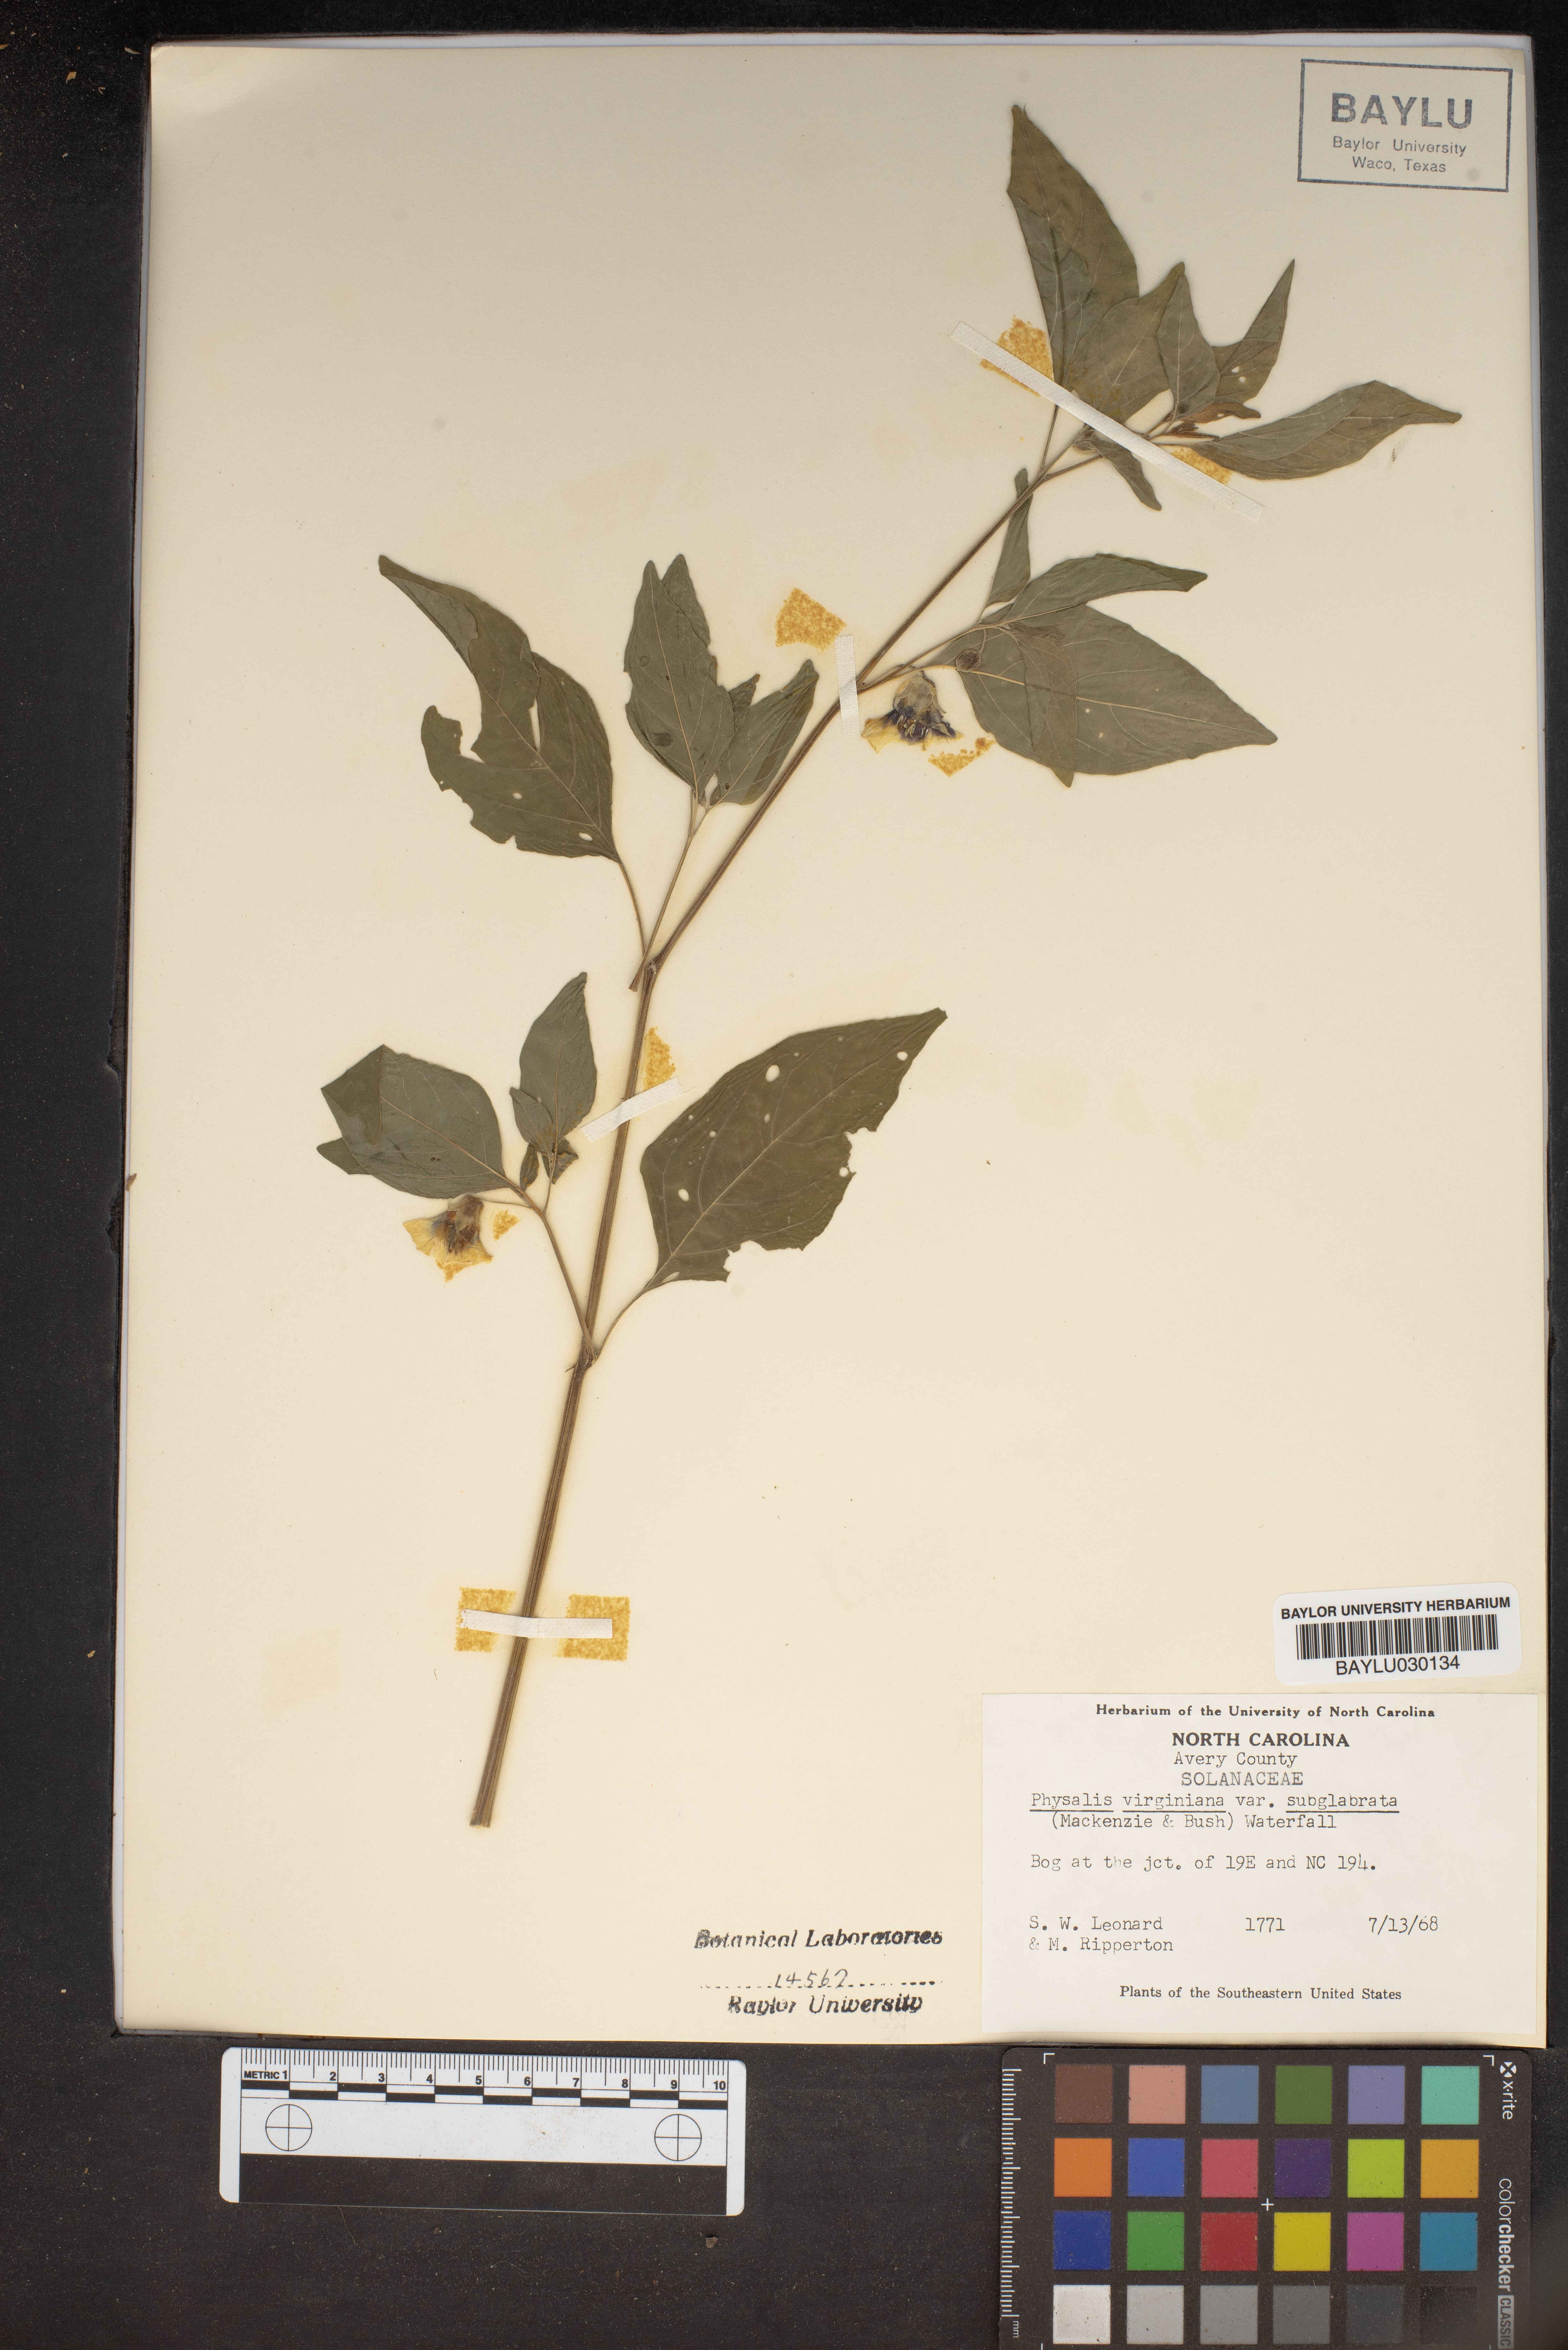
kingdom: Plantae
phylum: Tracheophyta
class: Magnoliopsida
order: Solanales
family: Solanaceae
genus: Physalis
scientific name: Physalis longifolia
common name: Common ground-cherry
